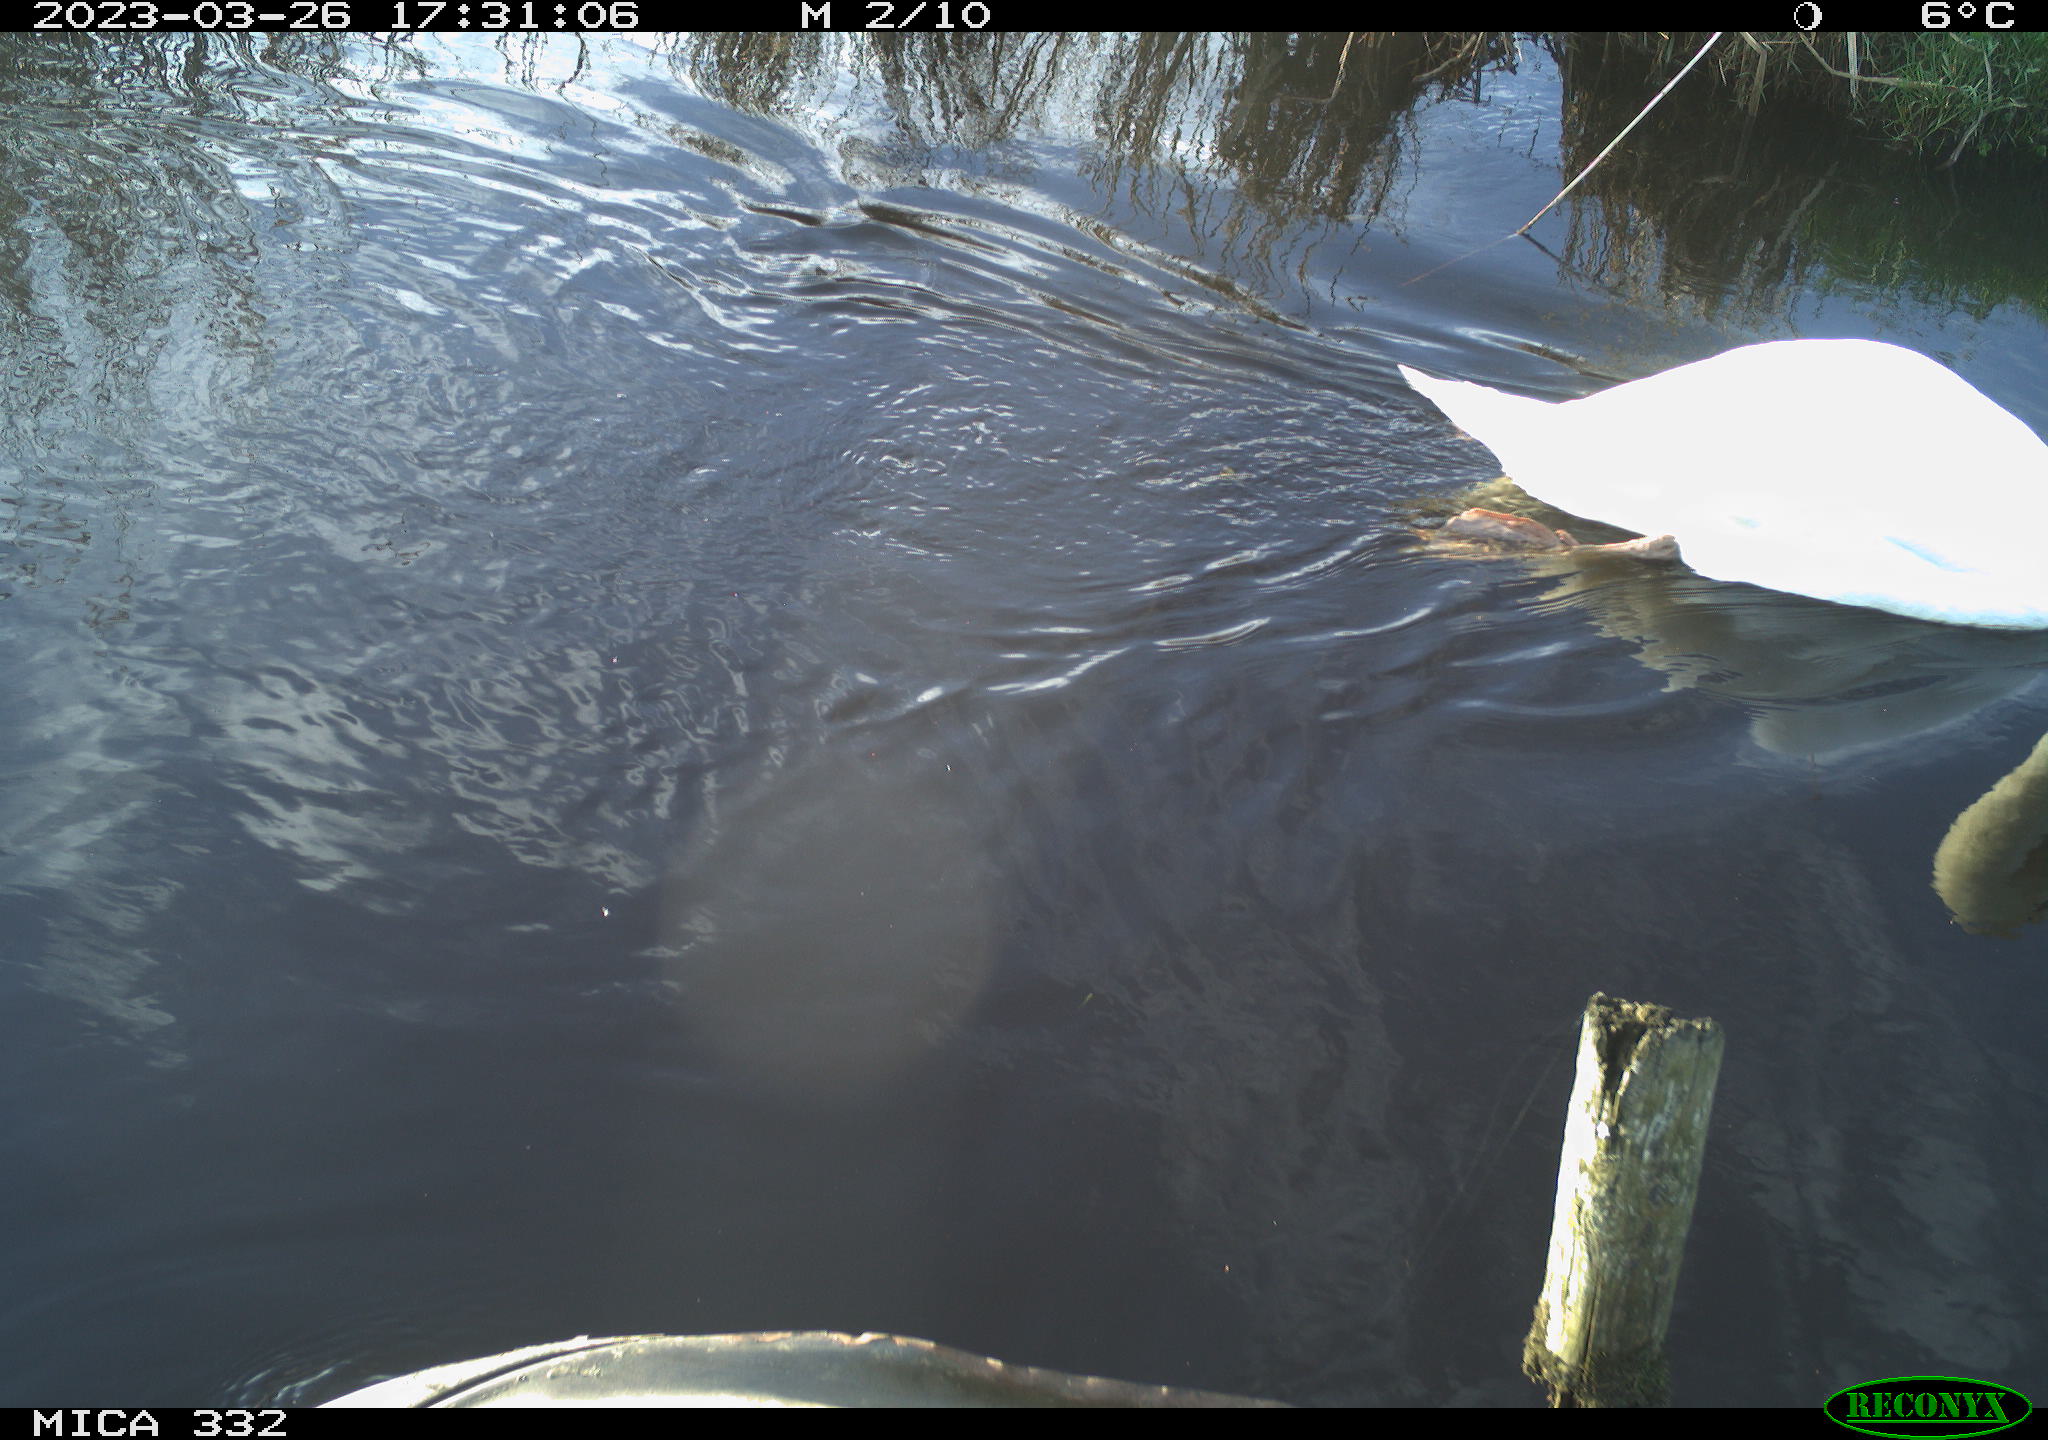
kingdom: Animalia
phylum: Chordata
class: Aves
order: Anseriformes
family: Anatidae
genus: Cygnus
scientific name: Cygnus olor
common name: Mute swan
